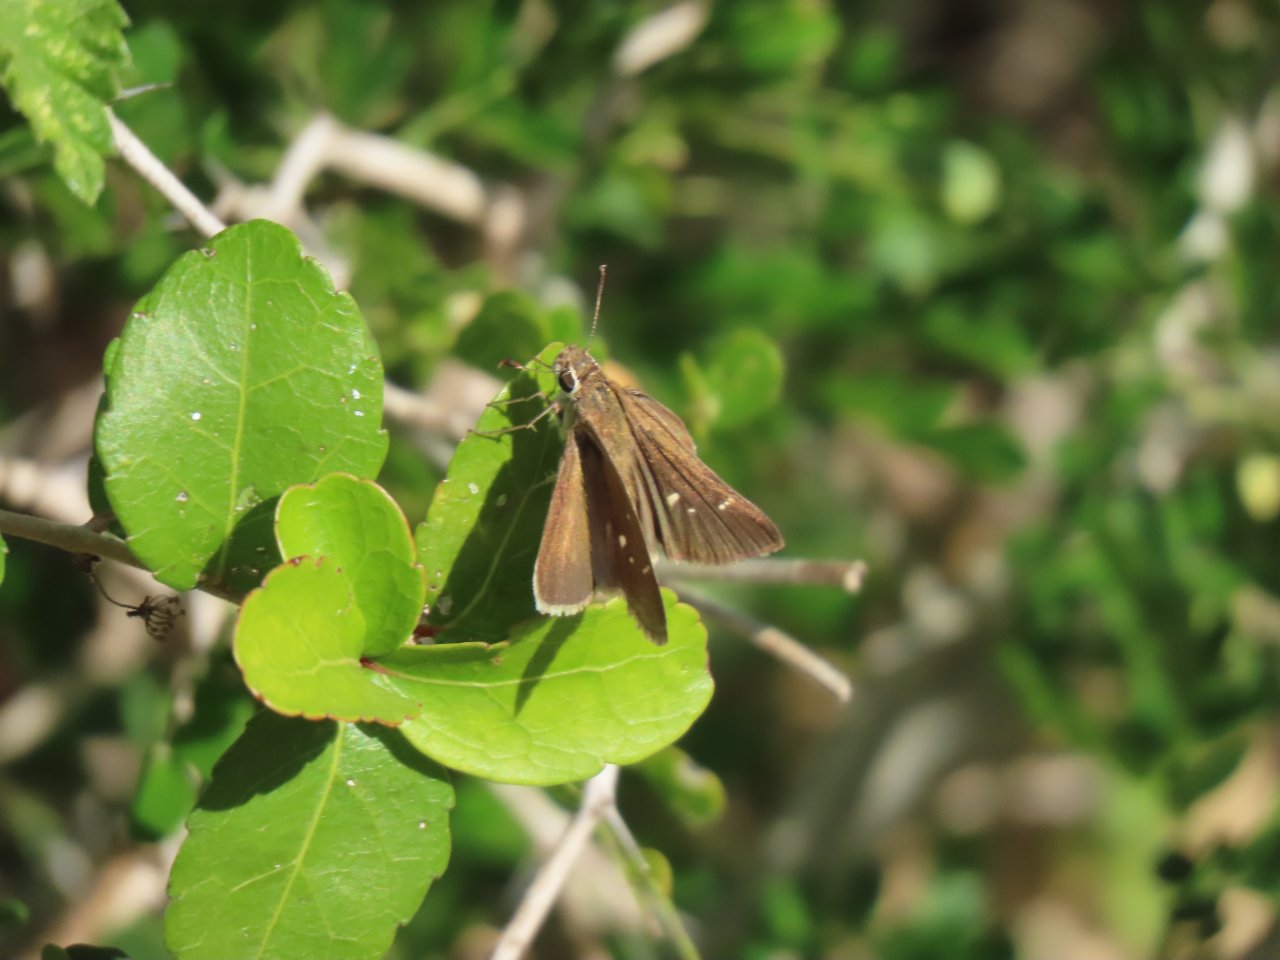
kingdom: Animalia
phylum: Arthropoda
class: Insecta
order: Lepidoptera
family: Hesperiidae
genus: Lerema
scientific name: Lerema accius
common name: Clouded Skipper
